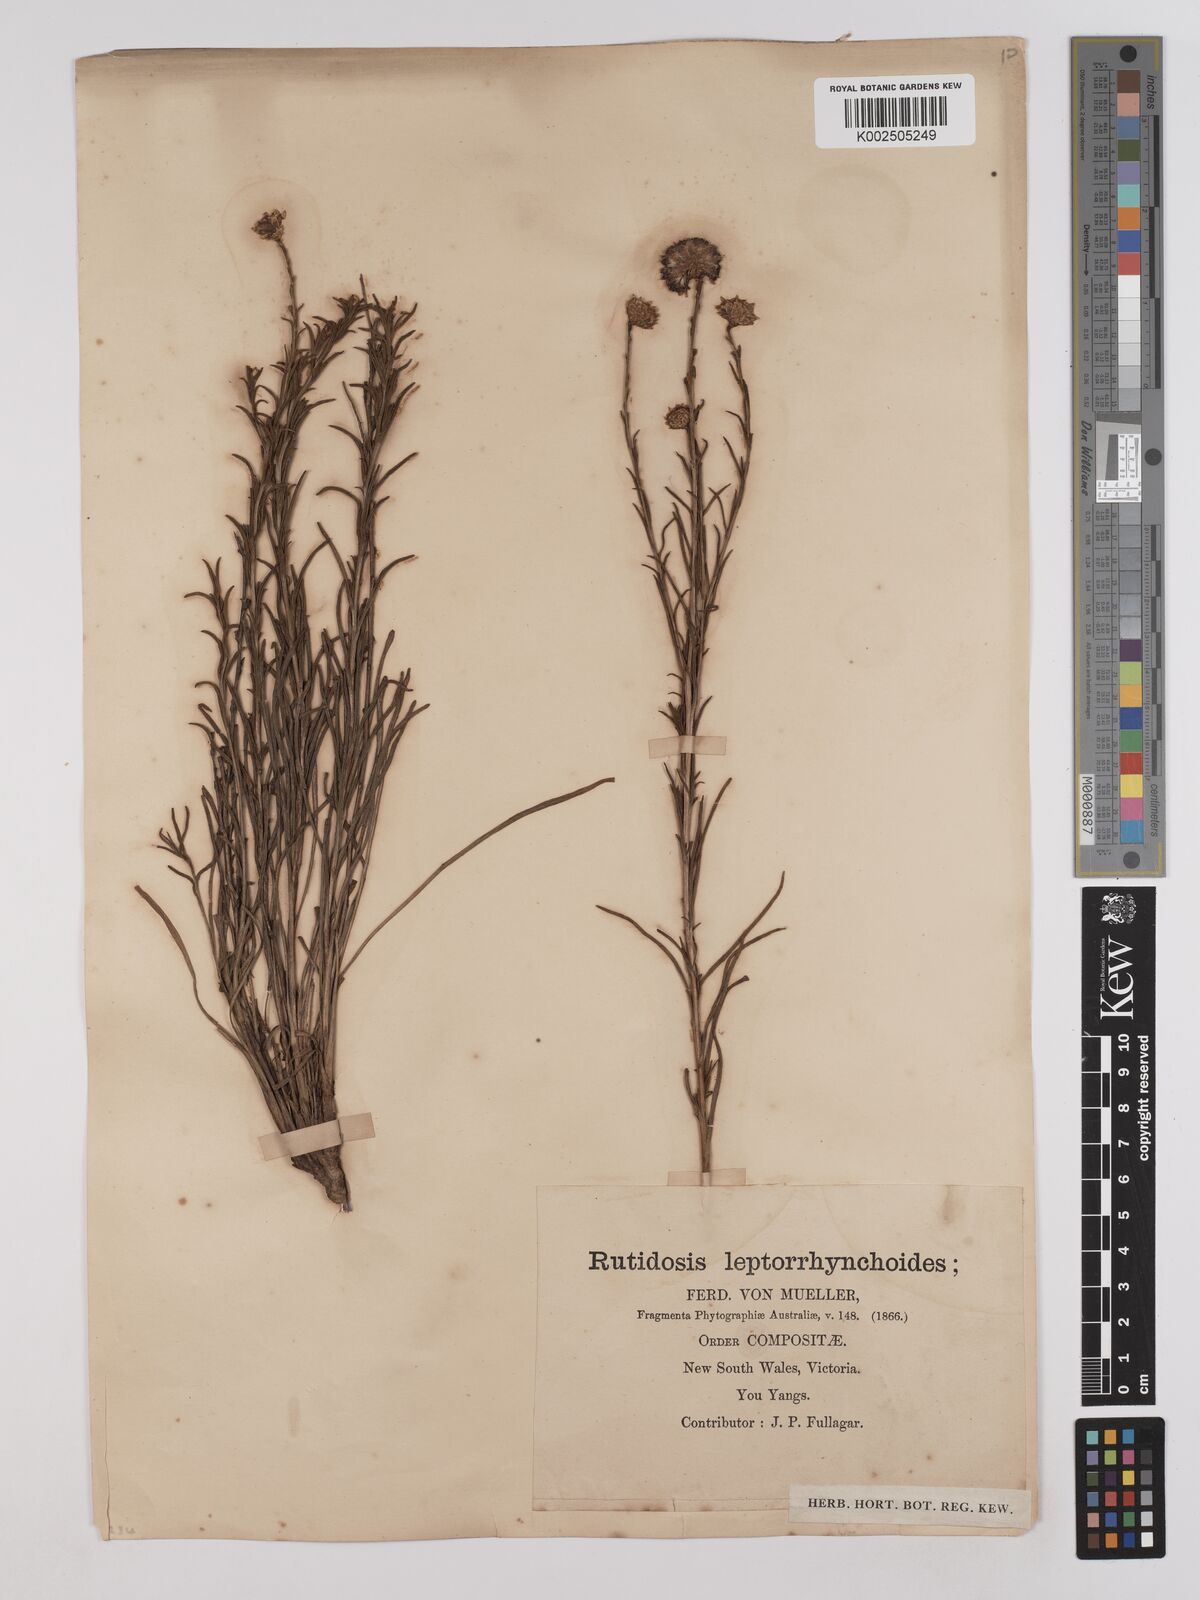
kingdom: Plantae
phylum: Tracheophyta
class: Magnoliopsida
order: Asterales
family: Asteraceae
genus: Rutidosis
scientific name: Rutidosis leptorrhynchoides
